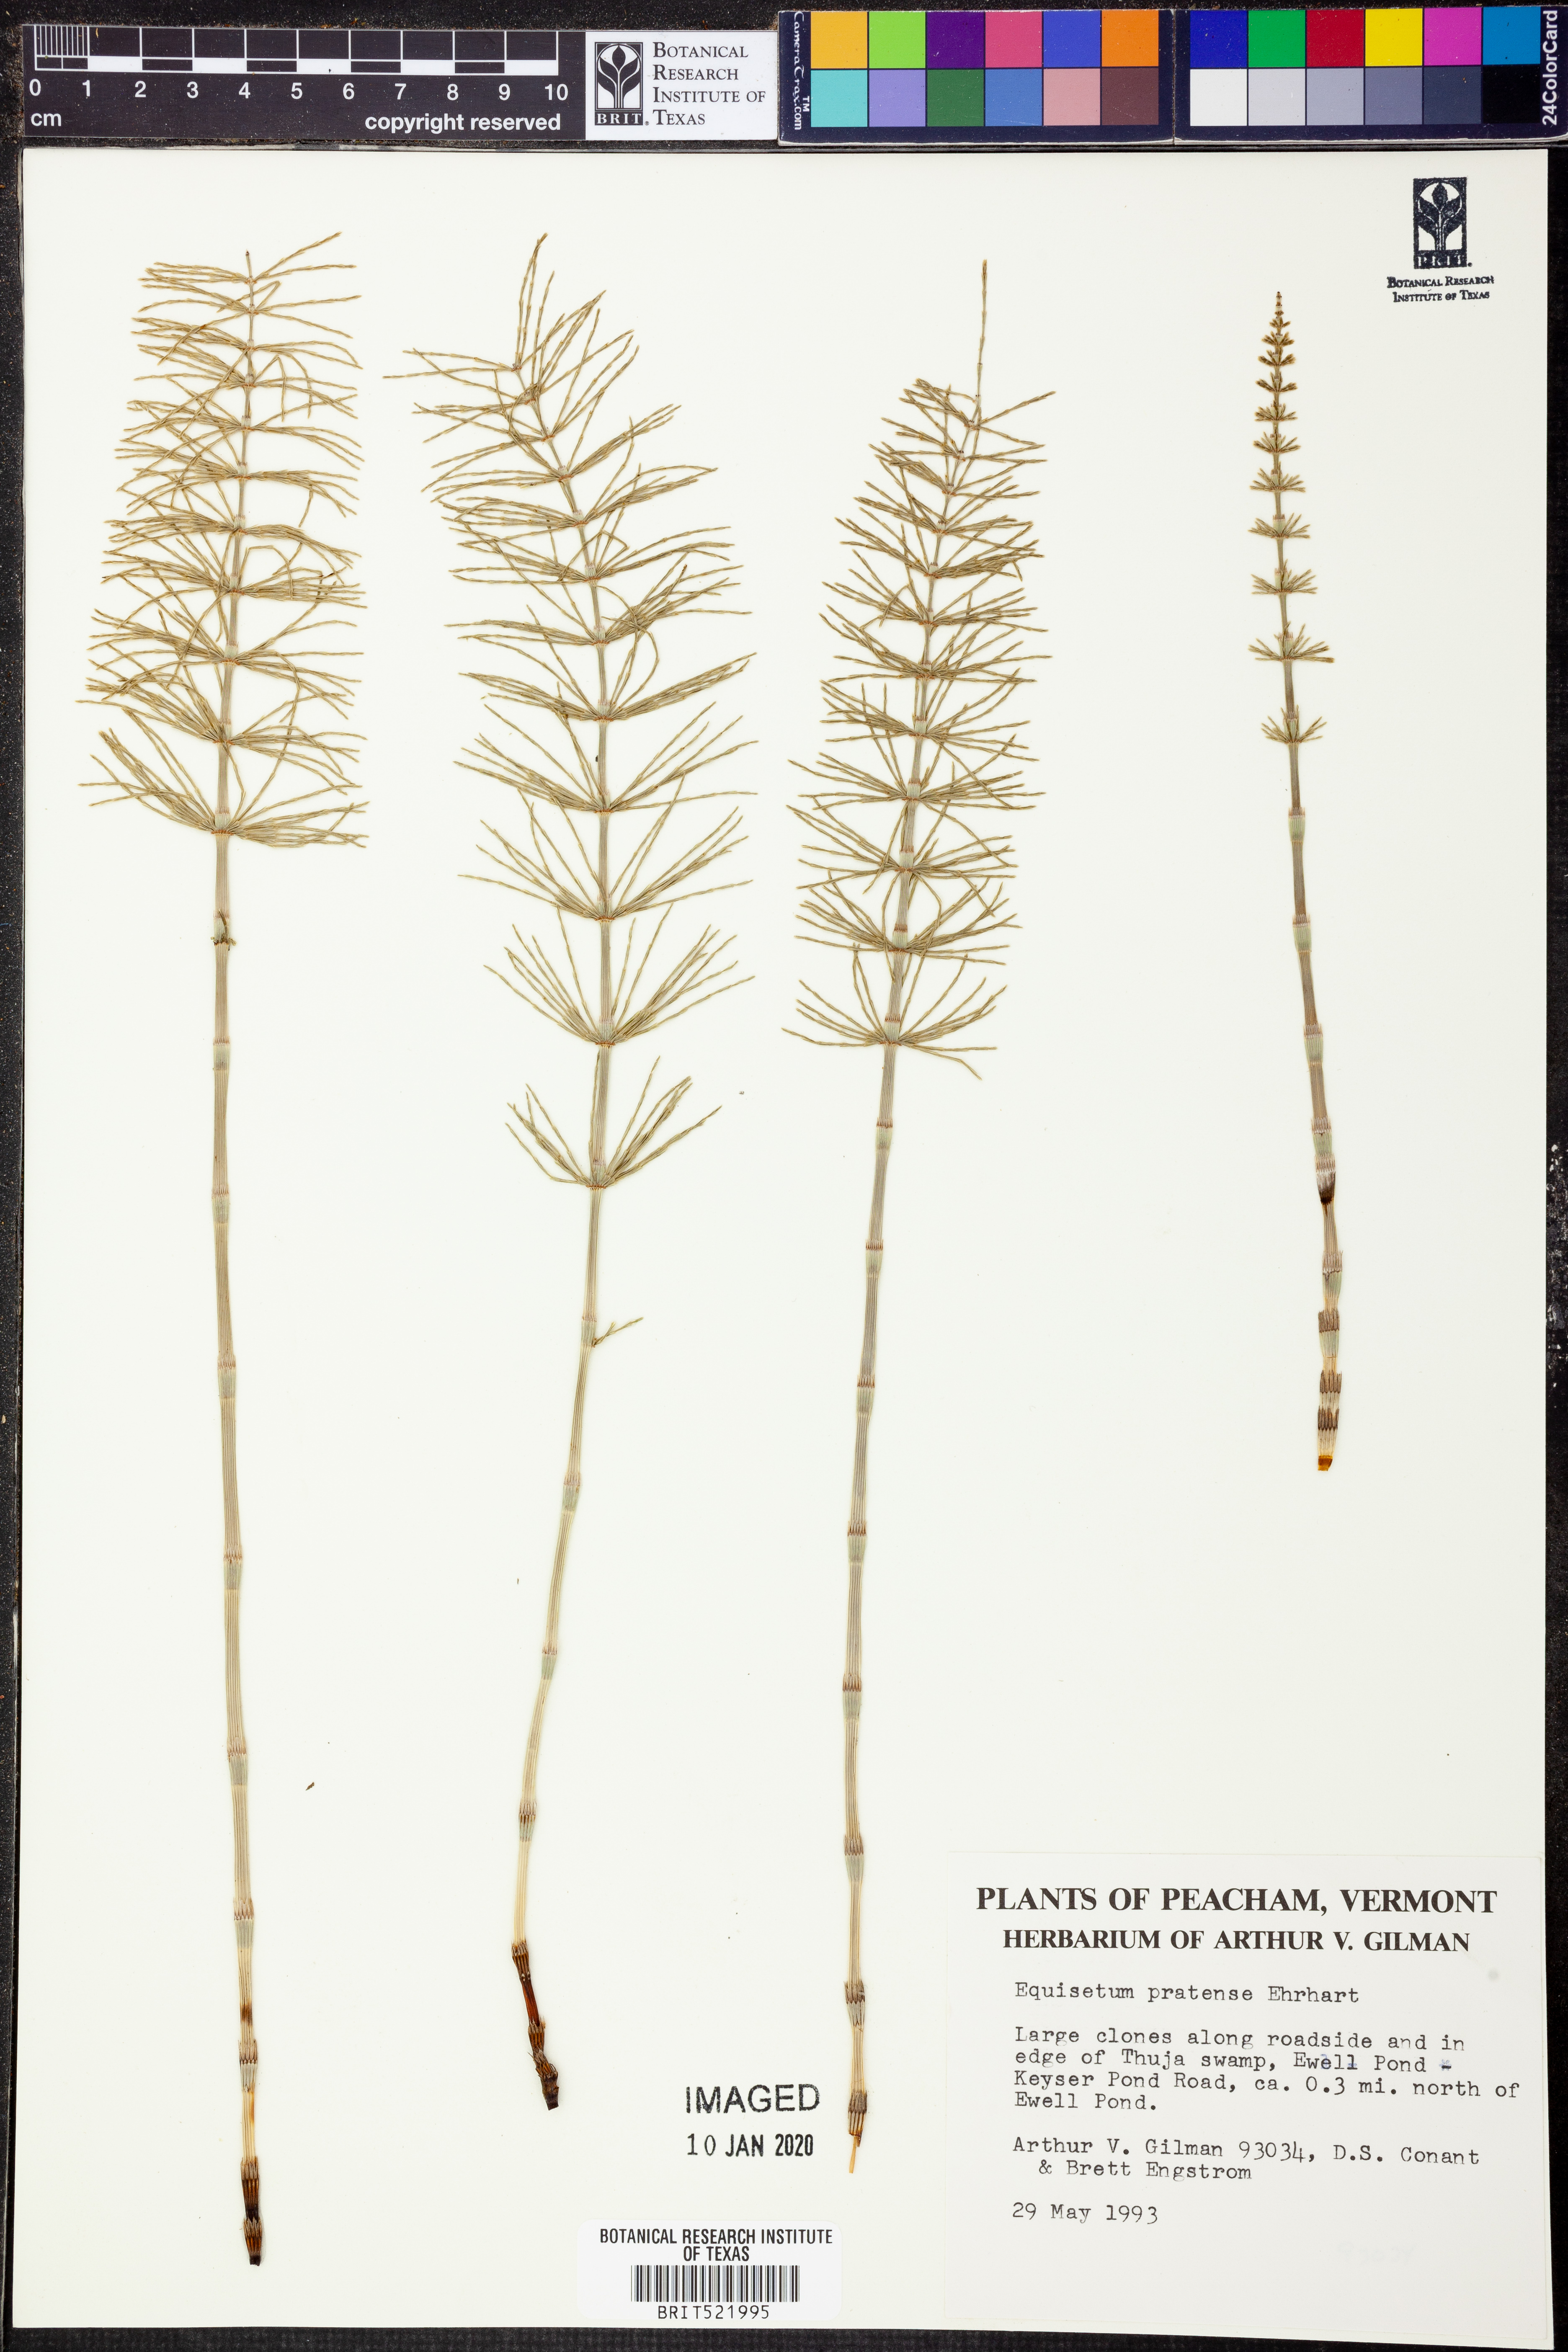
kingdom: Plantae
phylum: Tracheophyta
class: Polypodiopsida
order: Equisetales
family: Equisetaceae
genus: Equisetum
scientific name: Equisetum pratense
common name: Meadow horsetail
